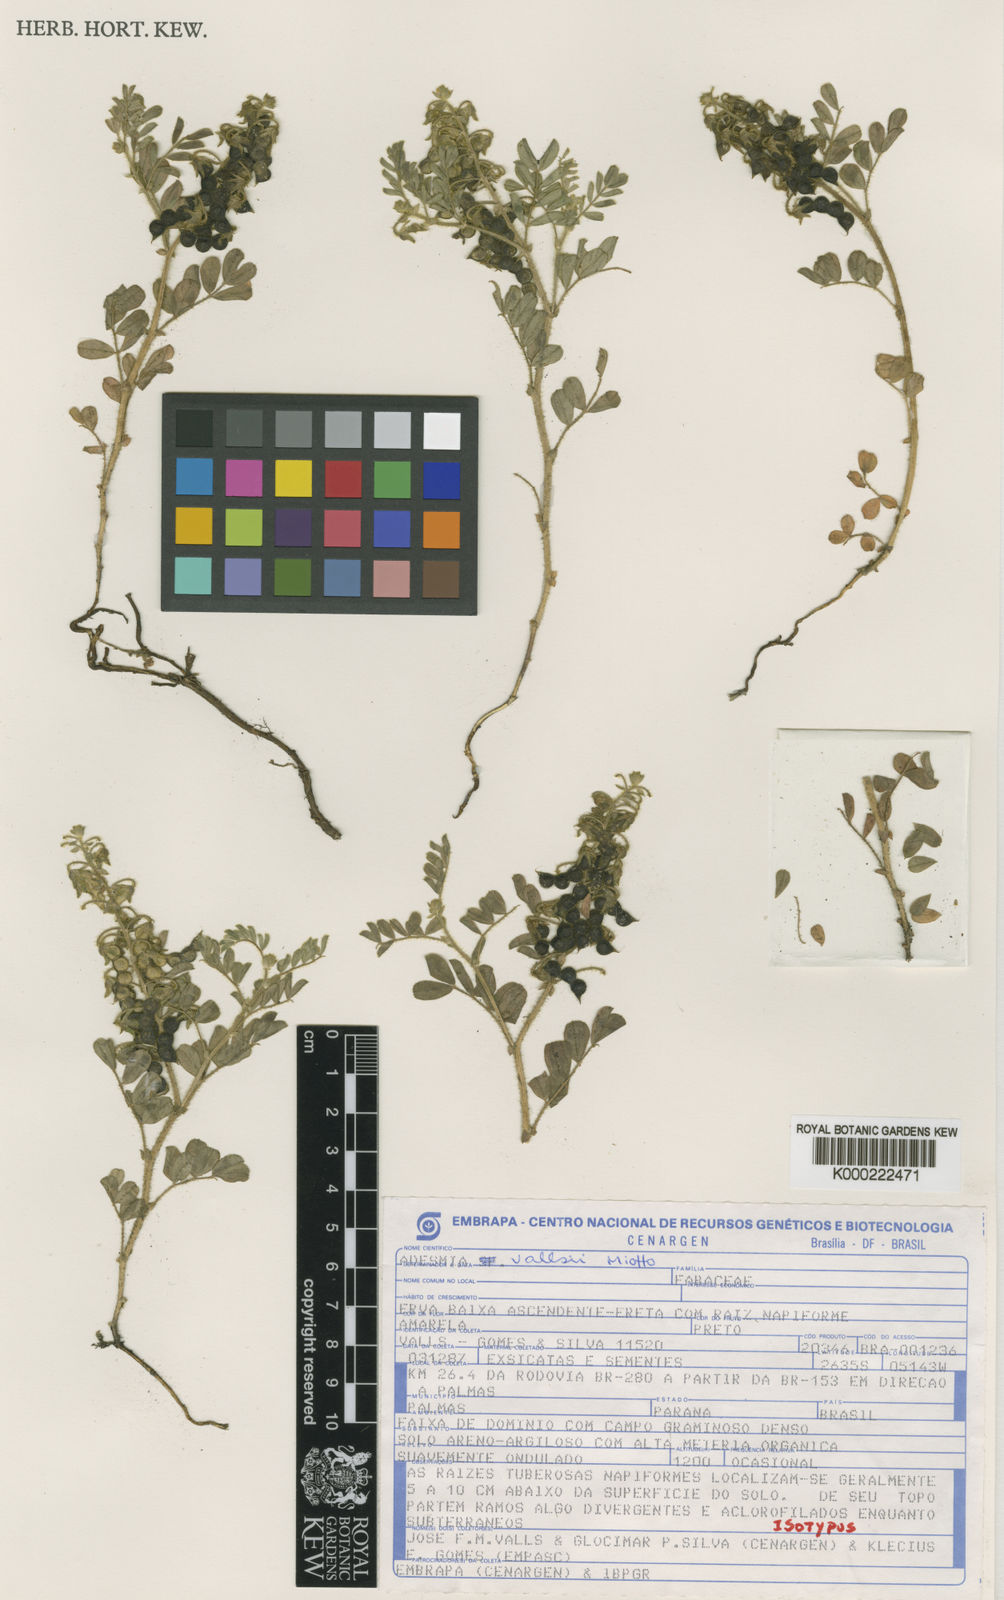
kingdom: Plantae
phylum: Tracheophyta
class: Magnoliopsida
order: Fabales
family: Fabaceae
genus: Adesmia
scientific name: Adesmia vallsii
